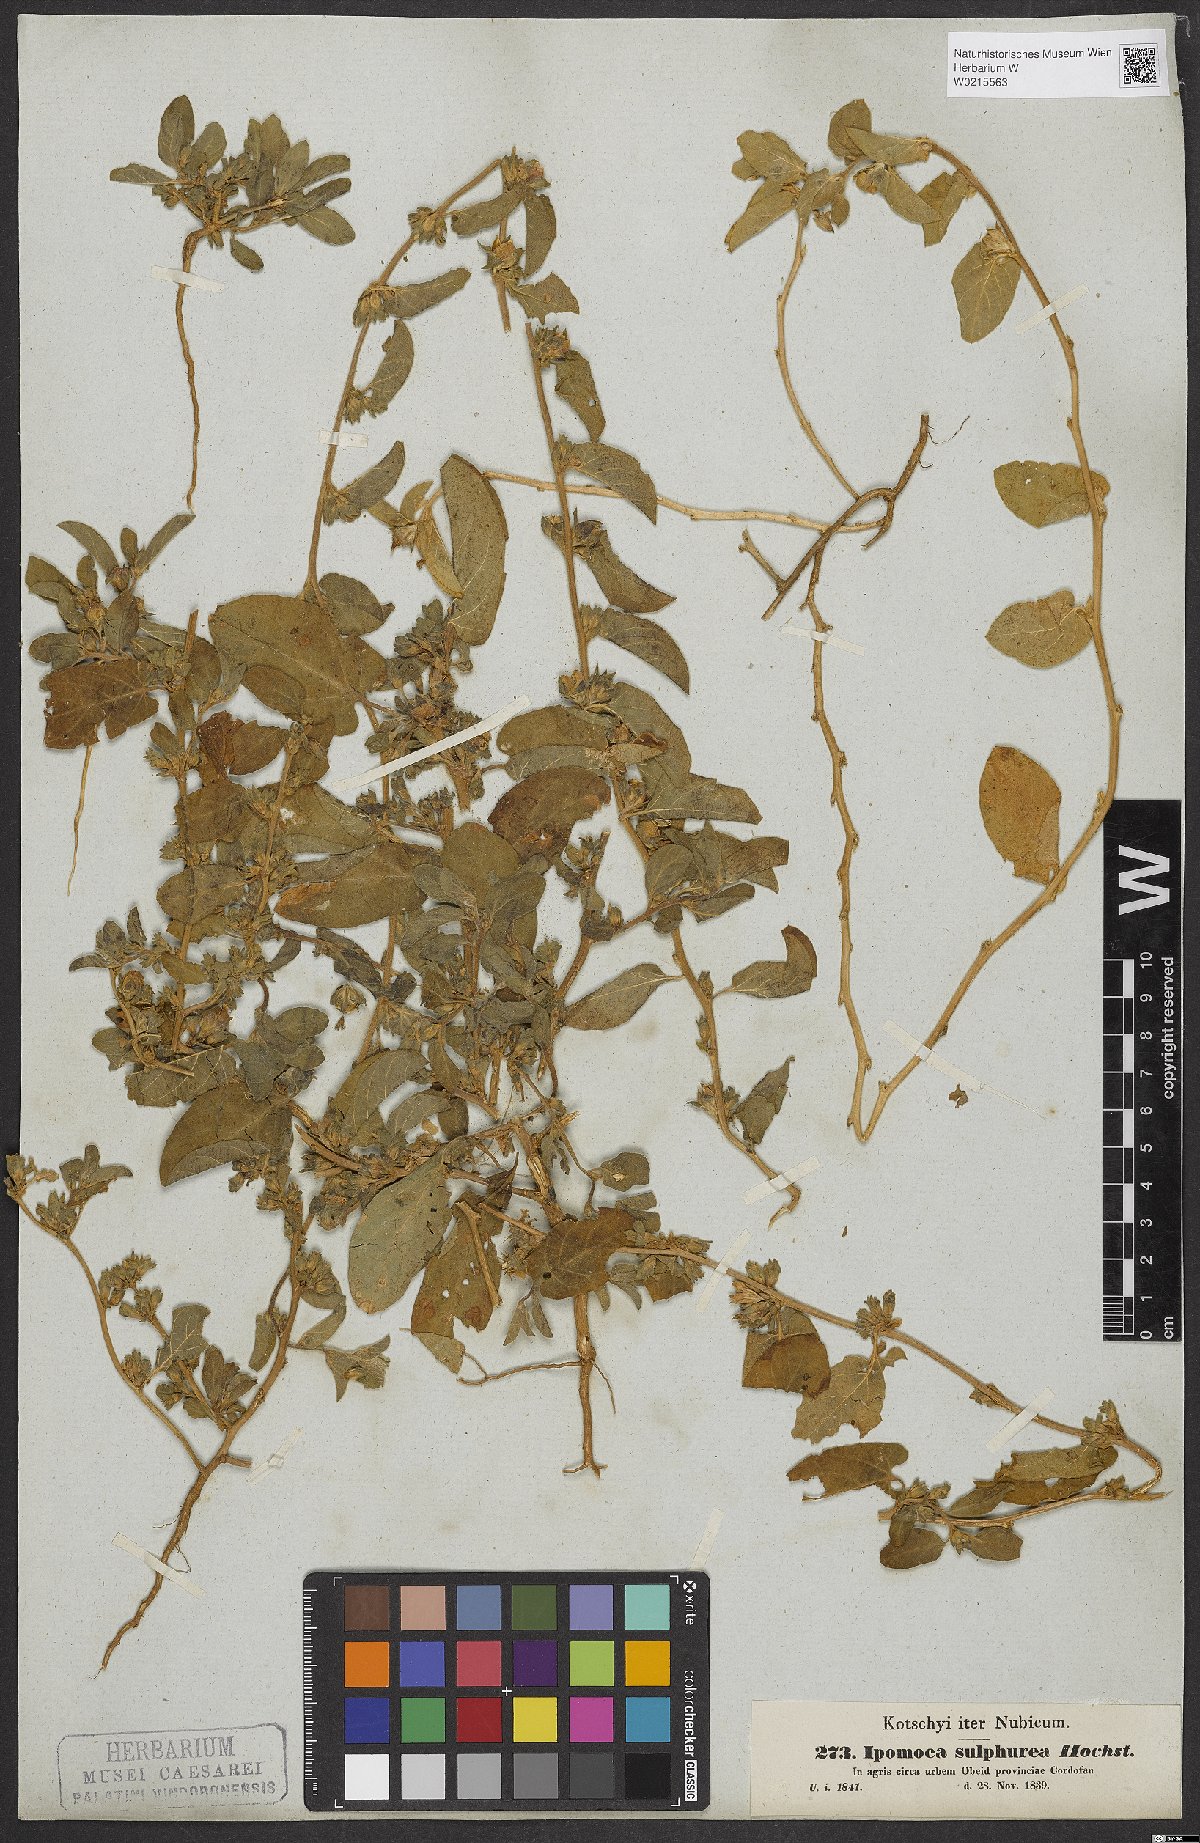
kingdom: Plantae
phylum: Tracheophyta
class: Magnoliopsida
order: Solanales
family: Convolvulaceae
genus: Ipomoea
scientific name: Ipomoea vagans
